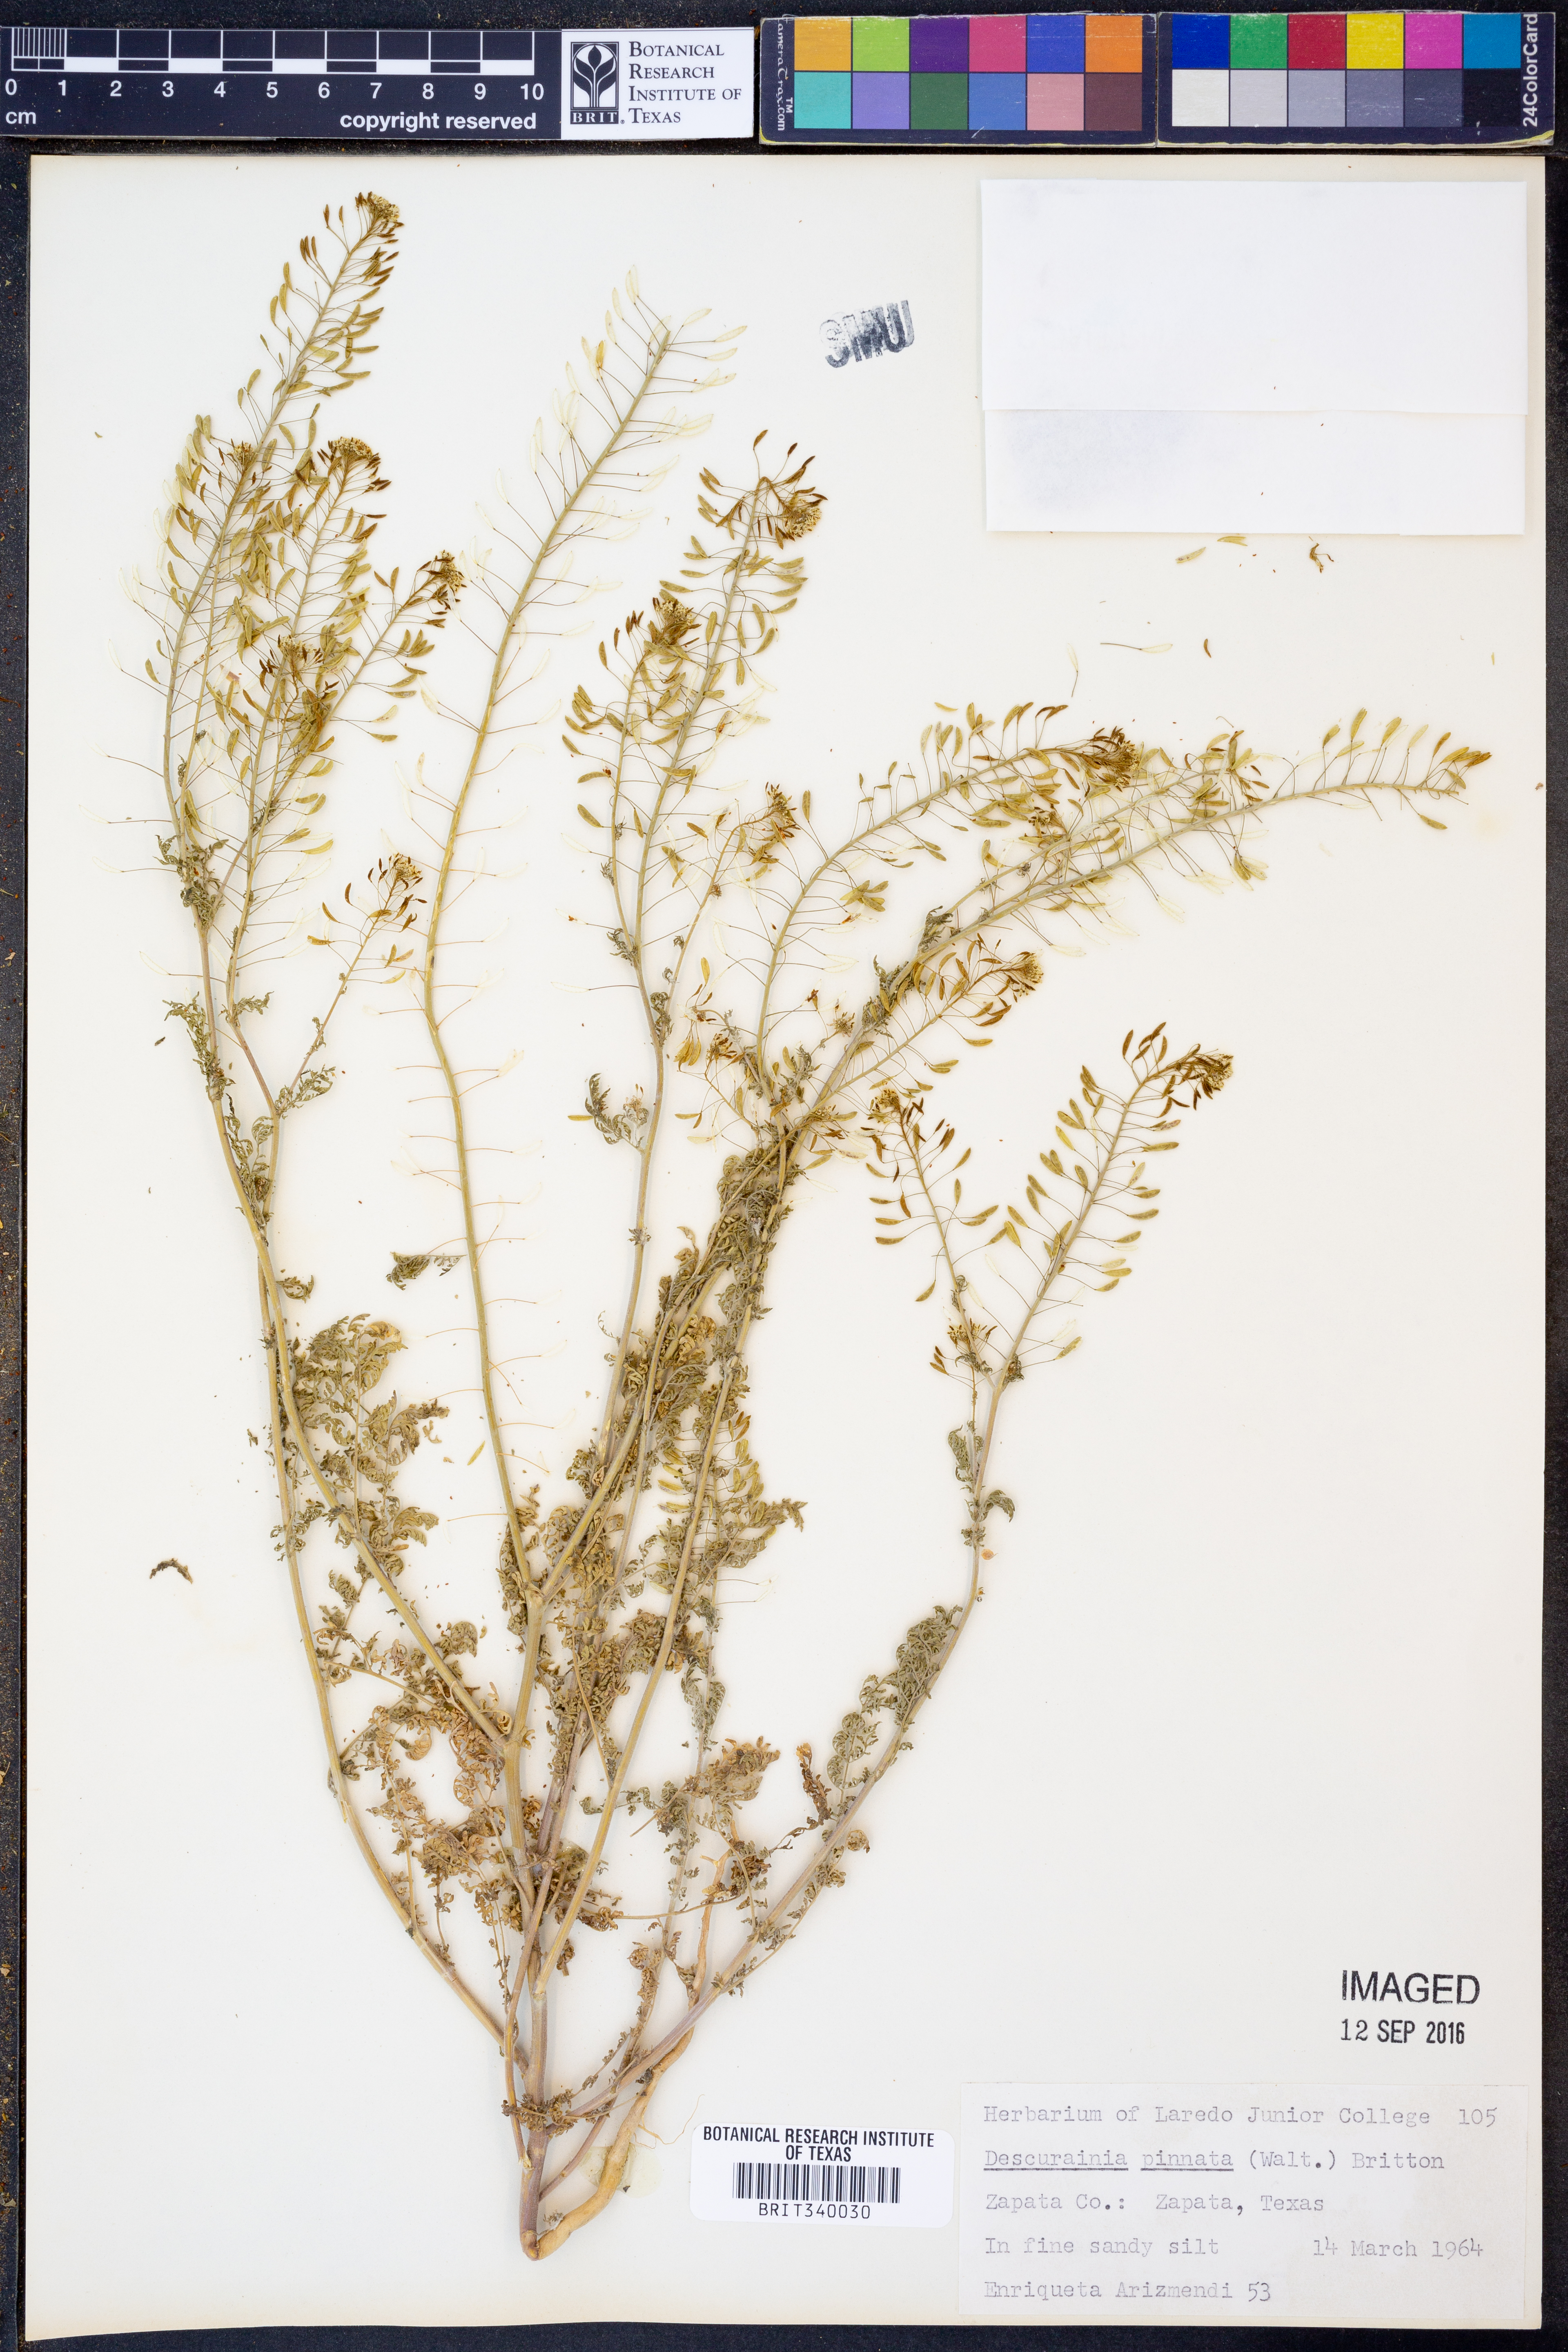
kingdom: Plantae
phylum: Tracheophyta
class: Magnoliopsida
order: Brassicales
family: Brassicaceae
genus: Descurainia
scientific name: Descurainia pinnata
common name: Western tansy mustard
